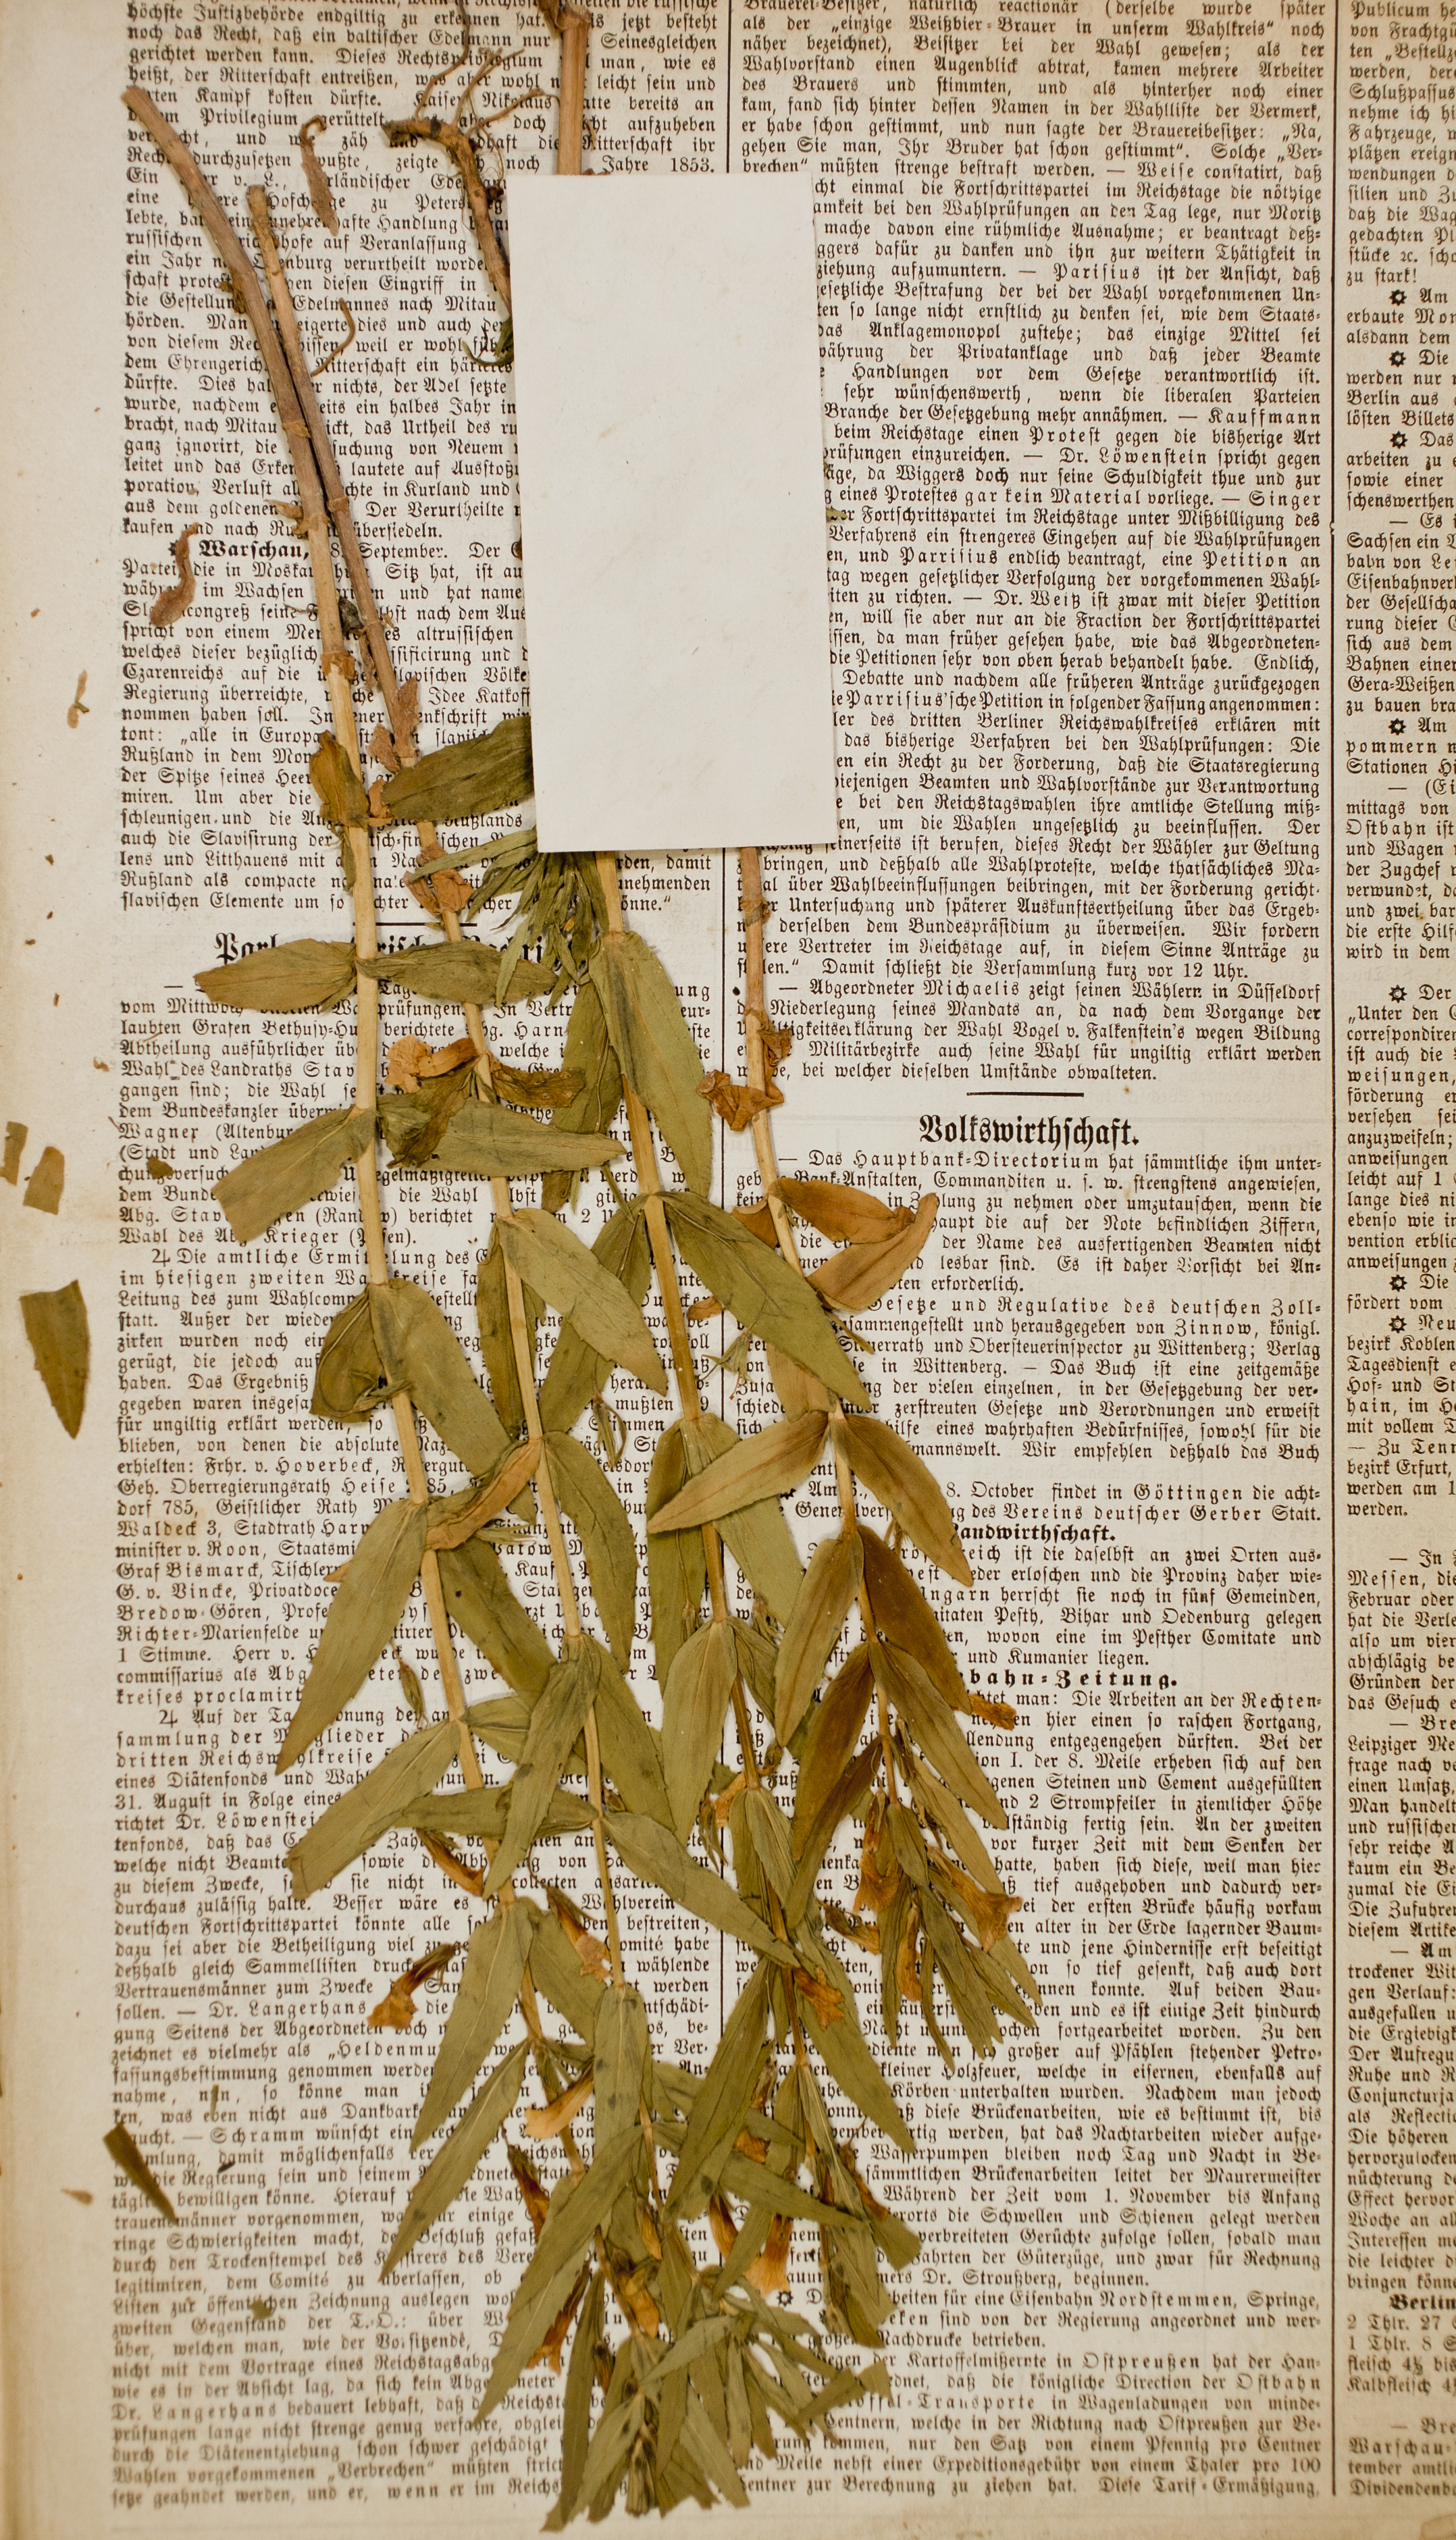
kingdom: Plantae
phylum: Tracheophyta
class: Magnoliopsida
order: Lamiales
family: Plantaginaceae
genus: Gratiola
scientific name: Gratiola officinalis
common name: Gratiola
